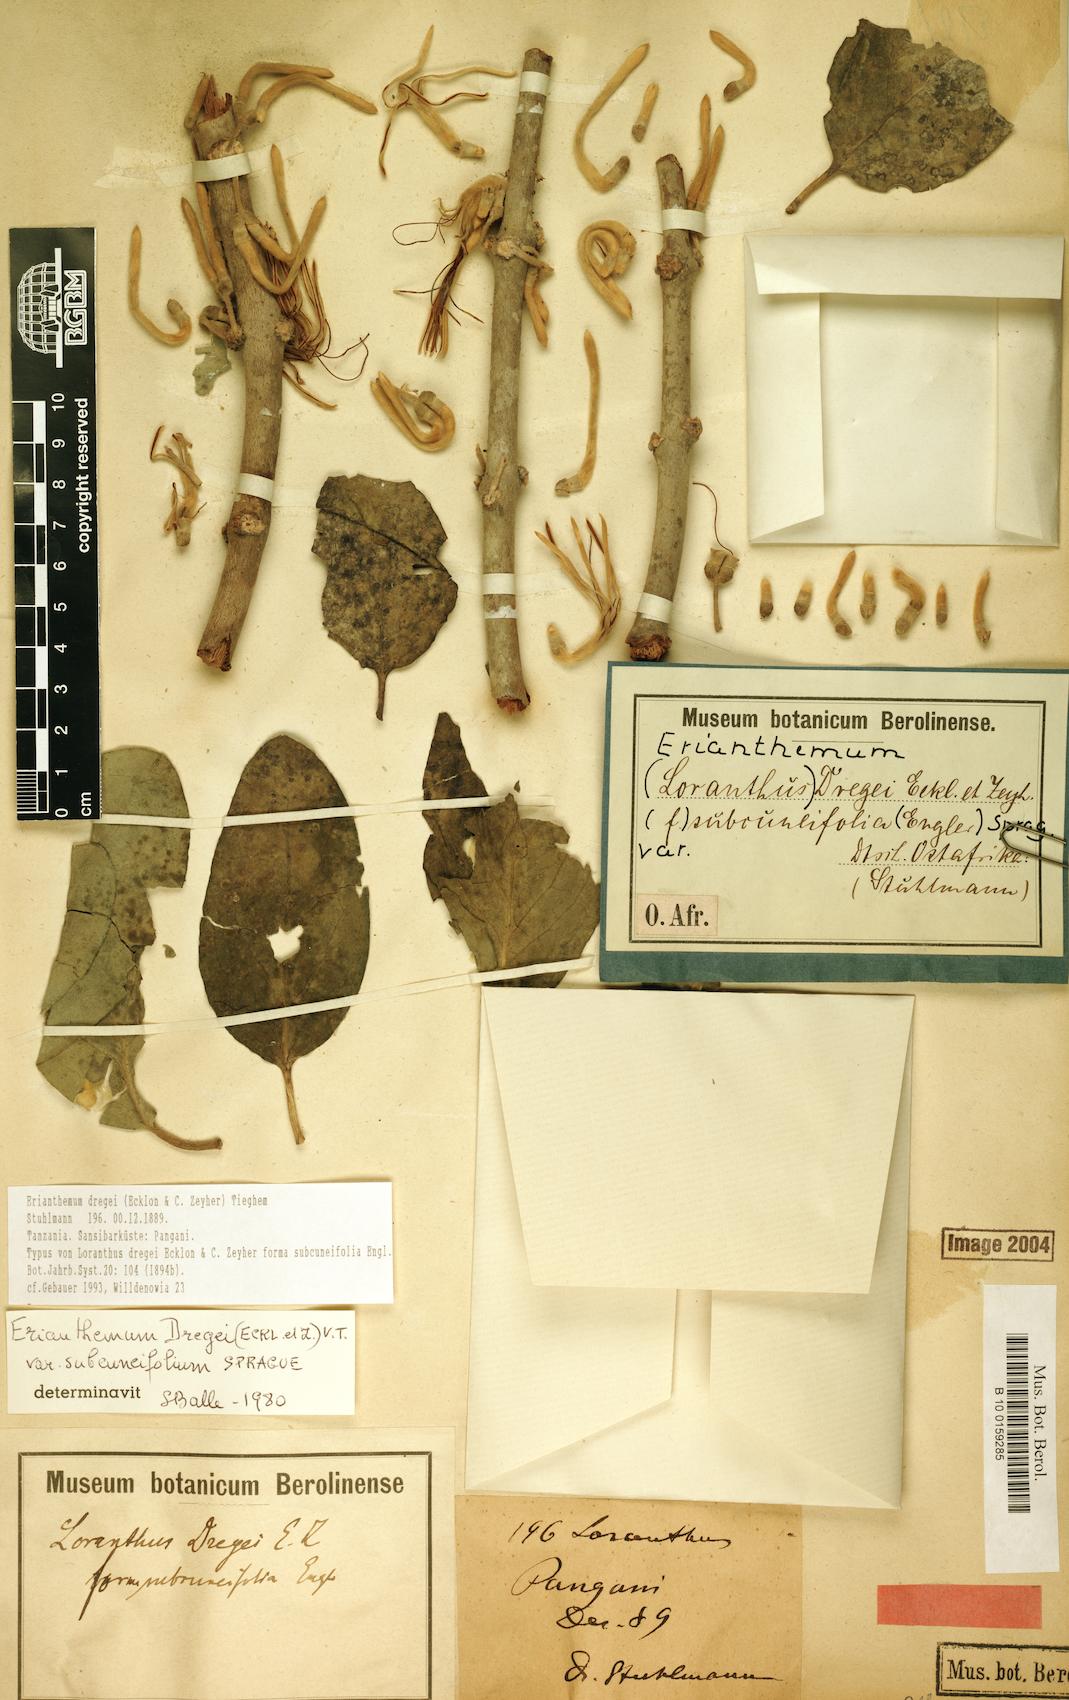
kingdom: Plantae
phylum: Tracheophyta
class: Magnoliopsida
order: Santalales
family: Loranthaceae
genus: Erianthemum
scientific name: Erianthemum dregei
